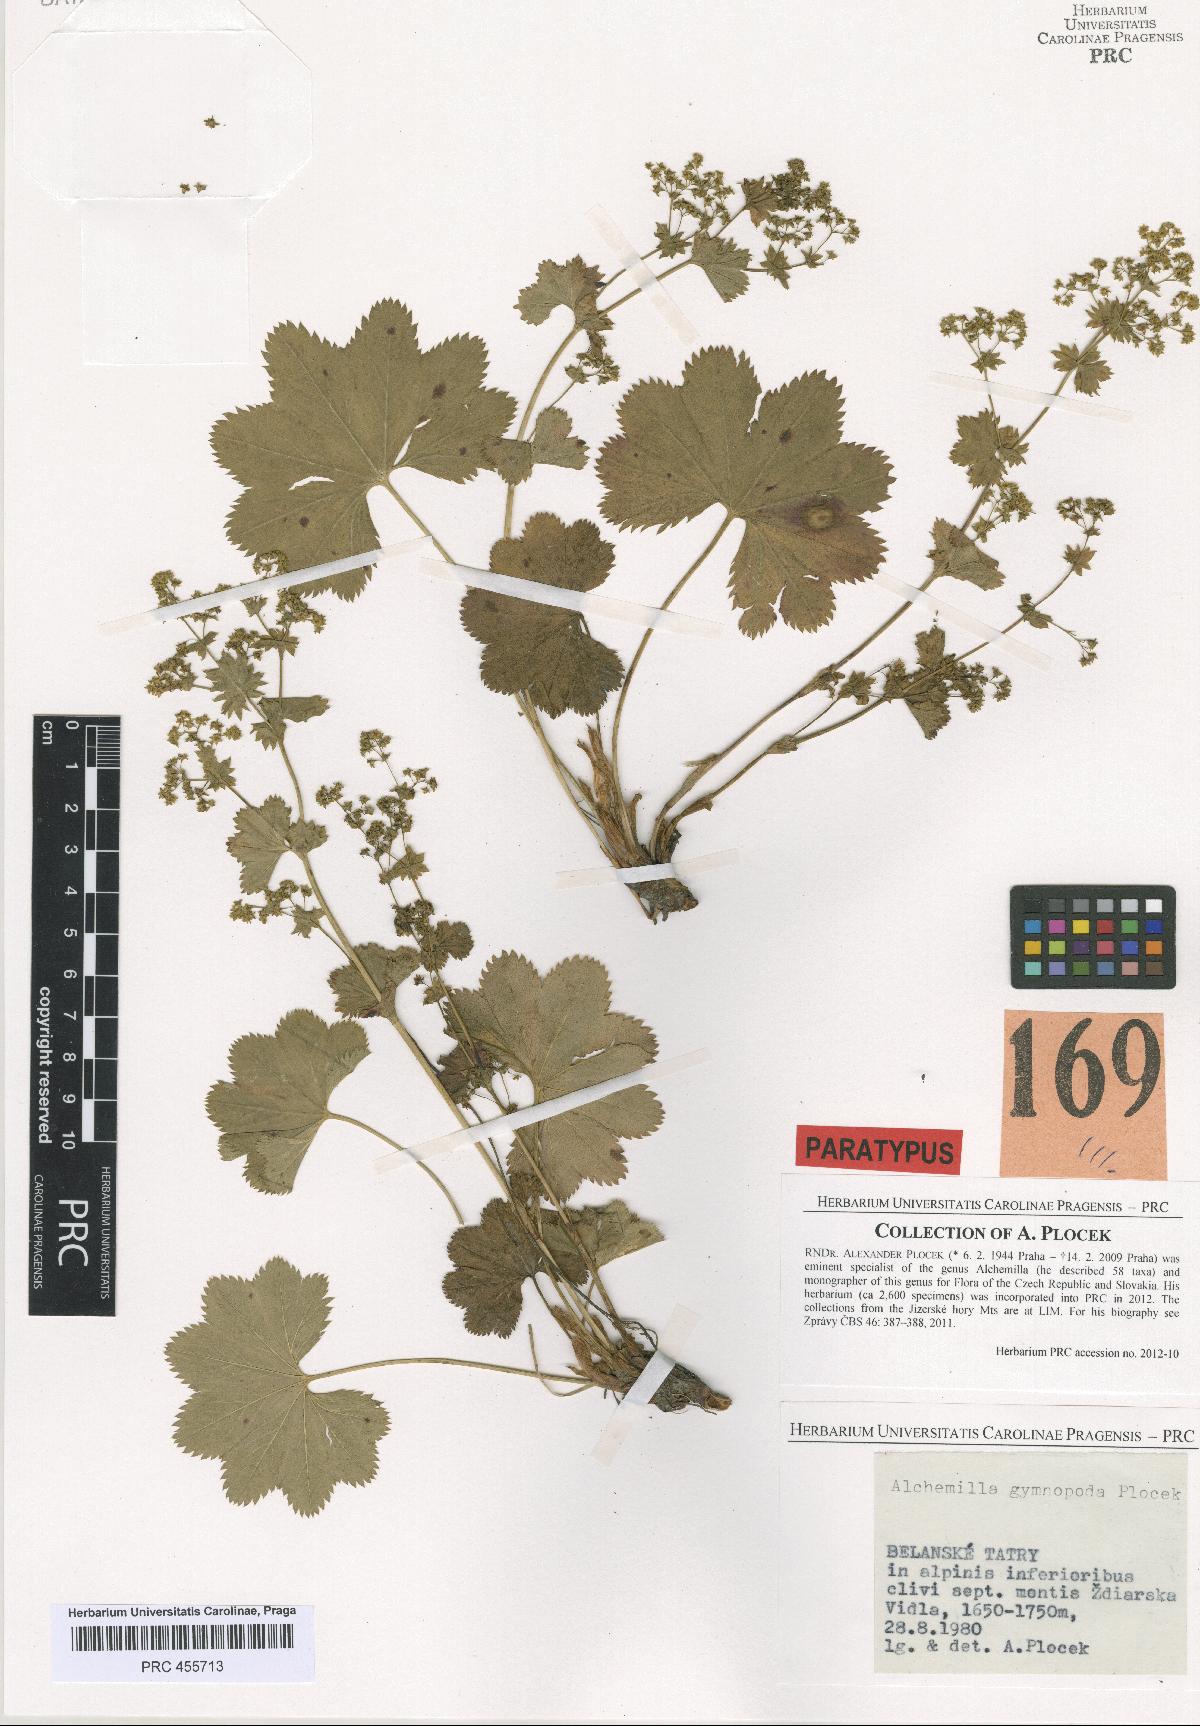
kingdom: Plantae
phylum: Tracheophyta
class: Magnoliopsida
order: Rosales
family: Rosaceae
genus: Alchemilla
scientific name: Alchemilla gymnopoda
